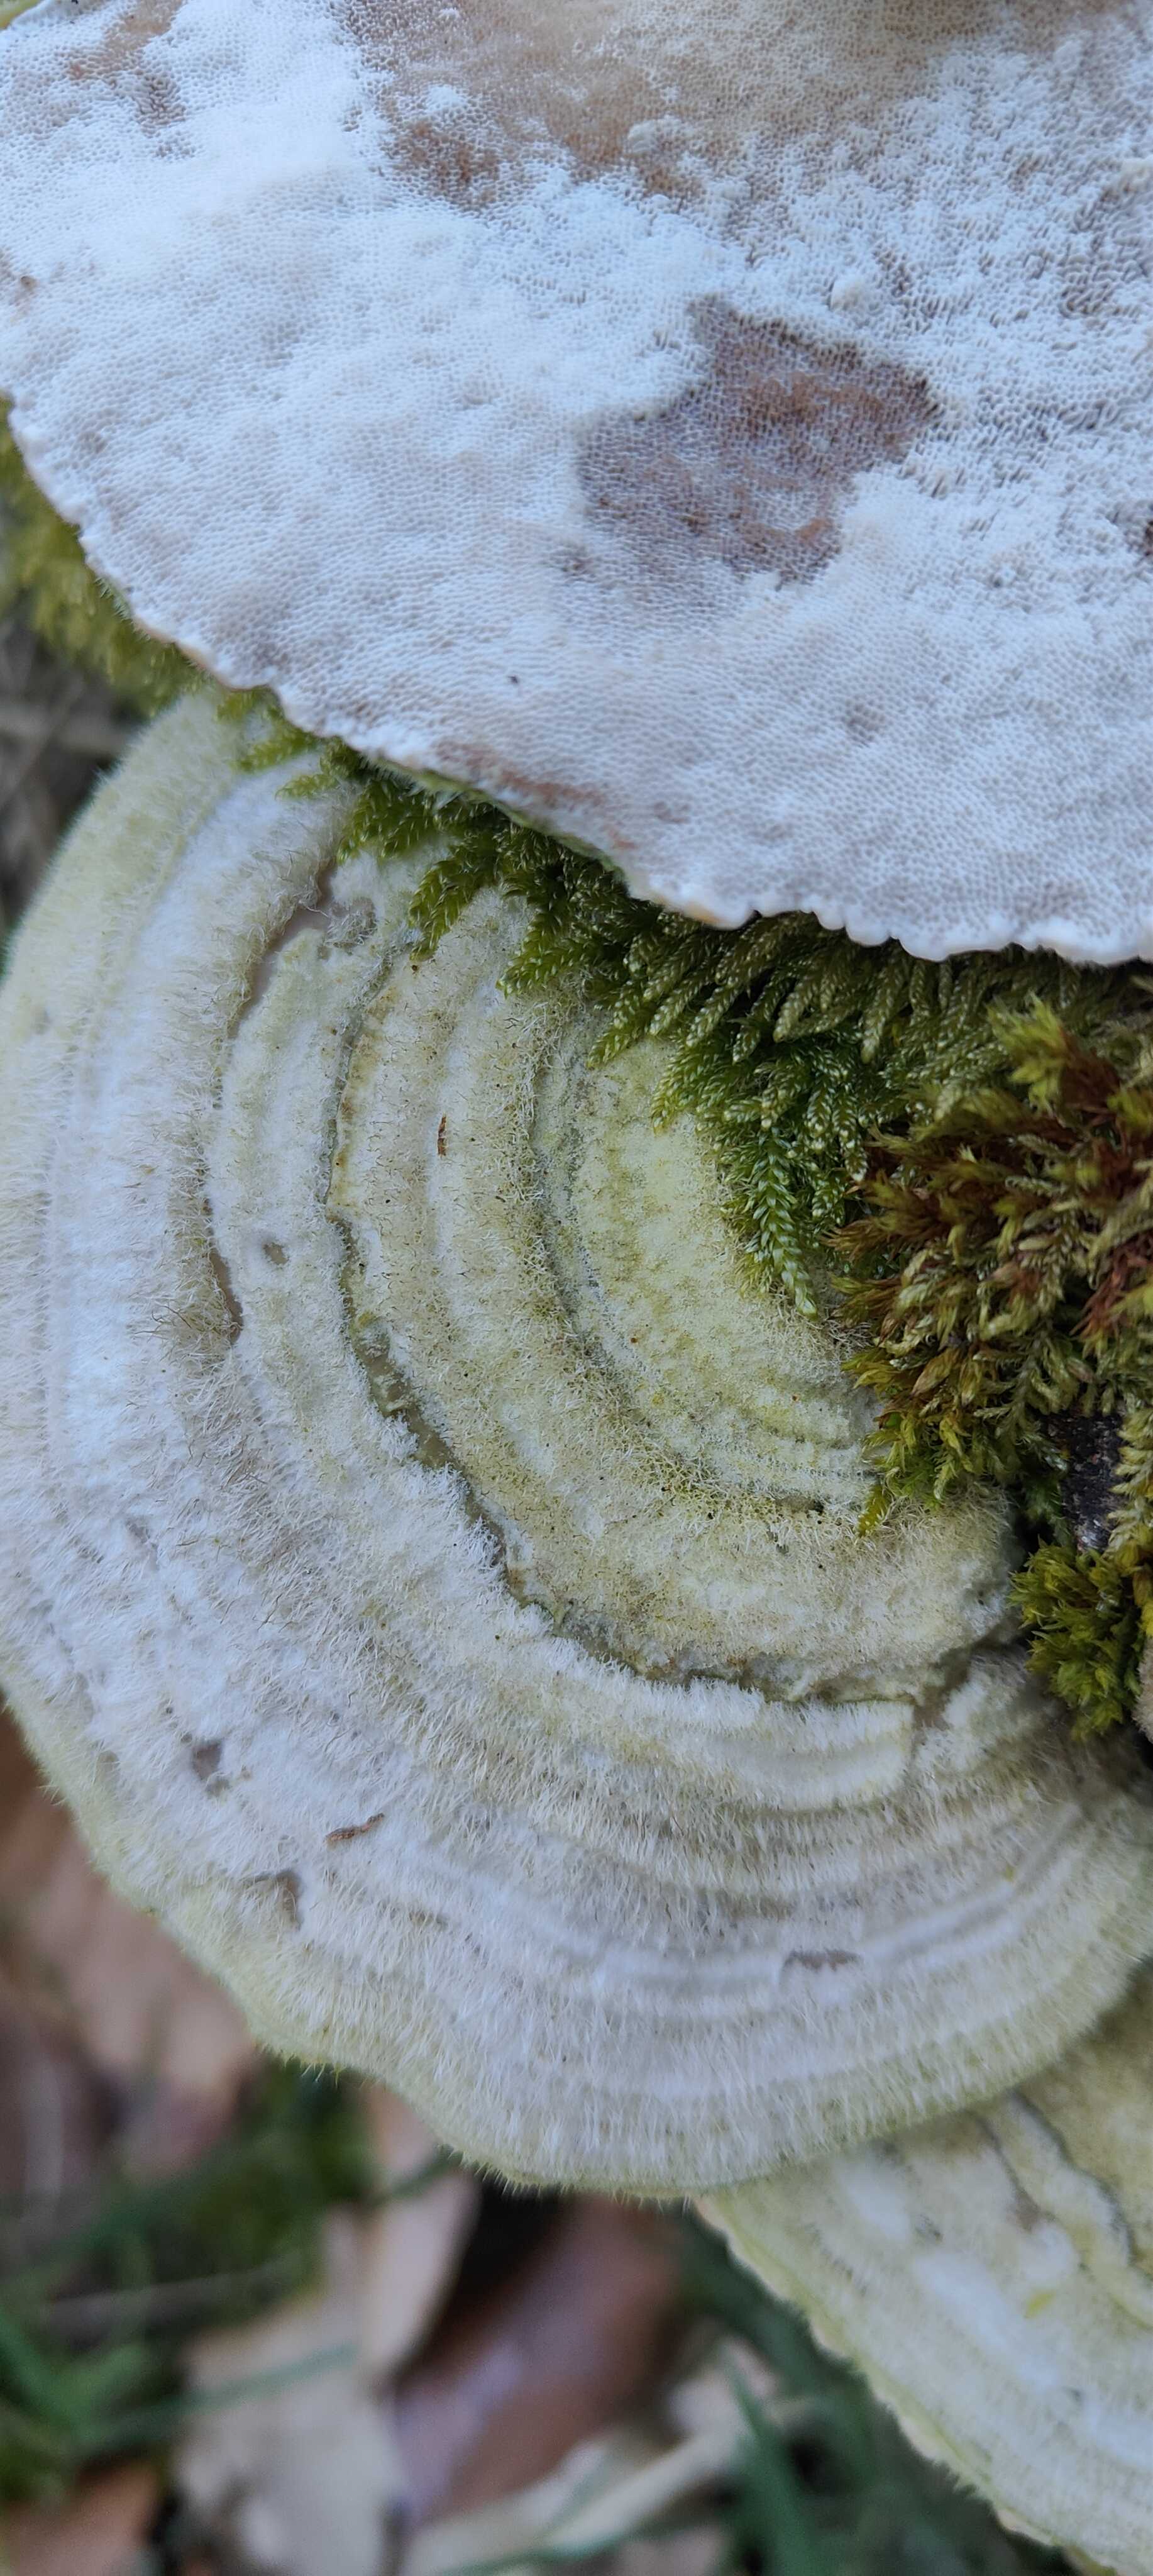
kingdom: Fungi
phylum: Basidiomycota
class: Agaricomycetes
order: Polyporales
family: Polyporaceae
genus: Trametes
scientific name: Trametes hirsuta
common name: håret læderporesvamp
